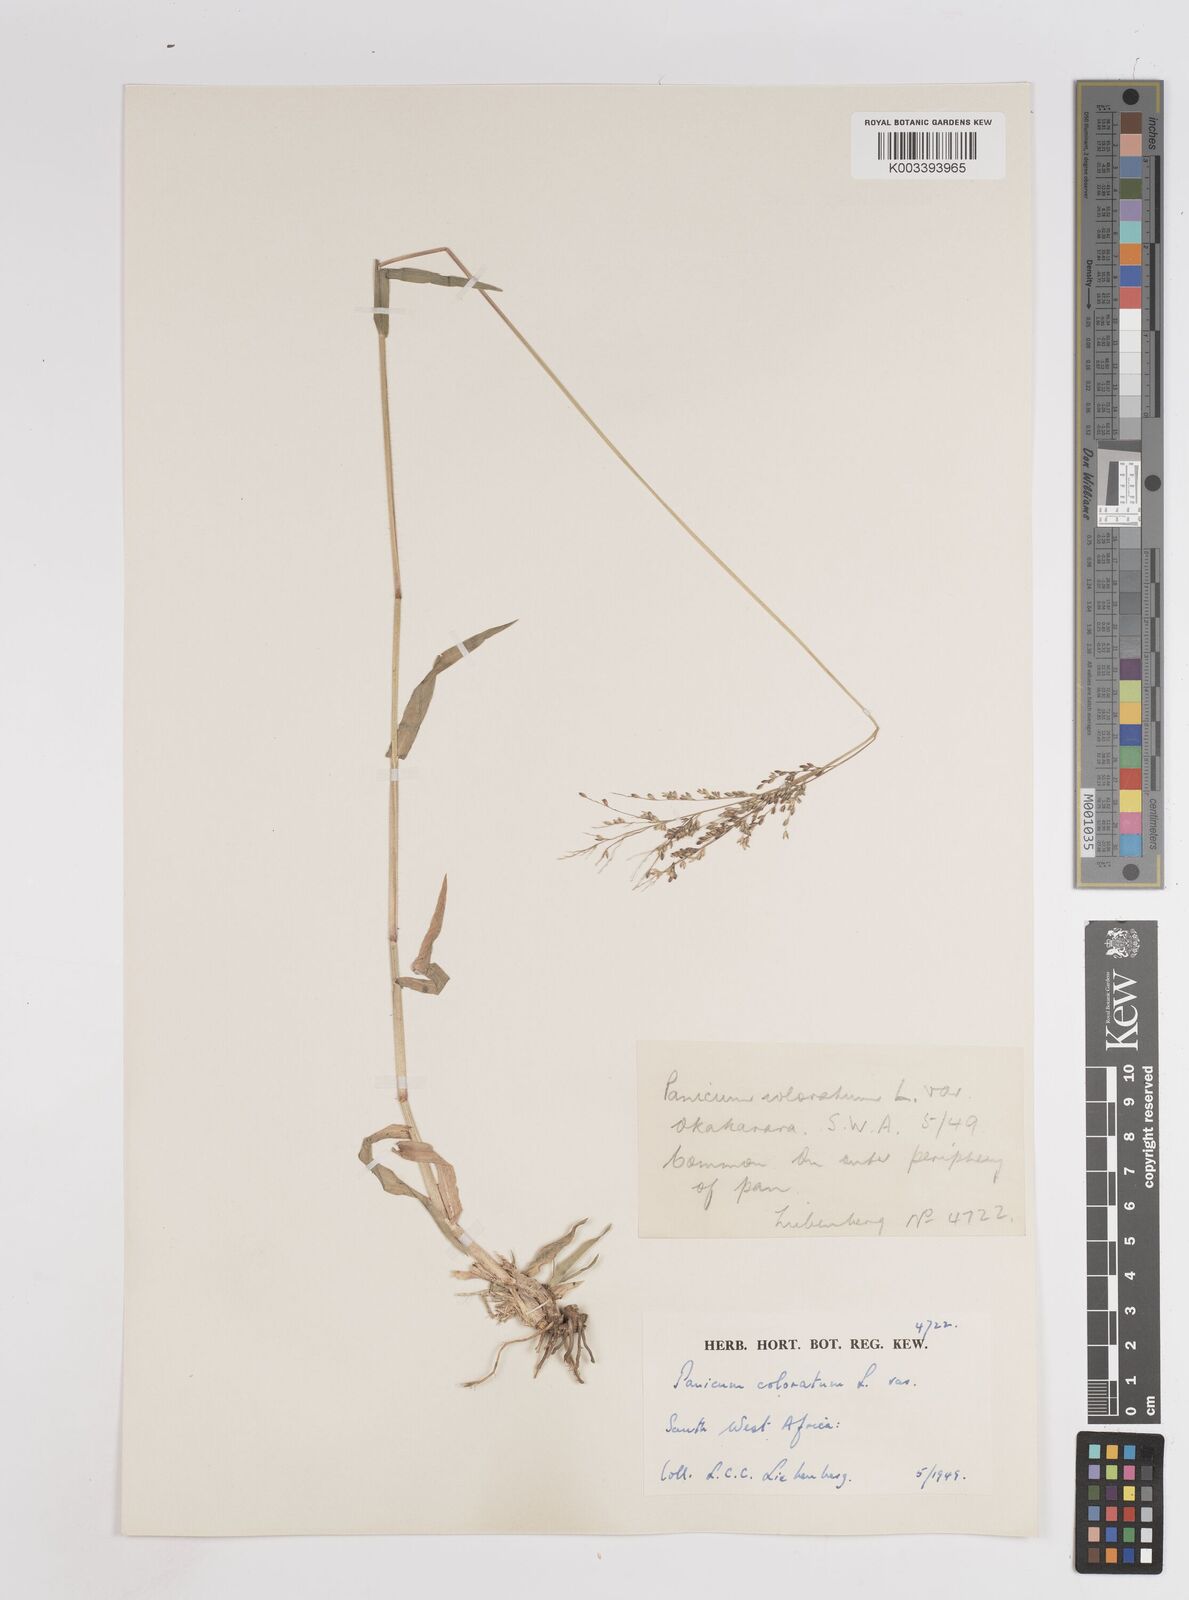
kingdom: Plantae
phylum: Tracheophyta
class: Liliopsida
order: Poales
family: Poaceae
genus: Panicum
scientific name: Panicum coloratum
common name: Kleingrass
